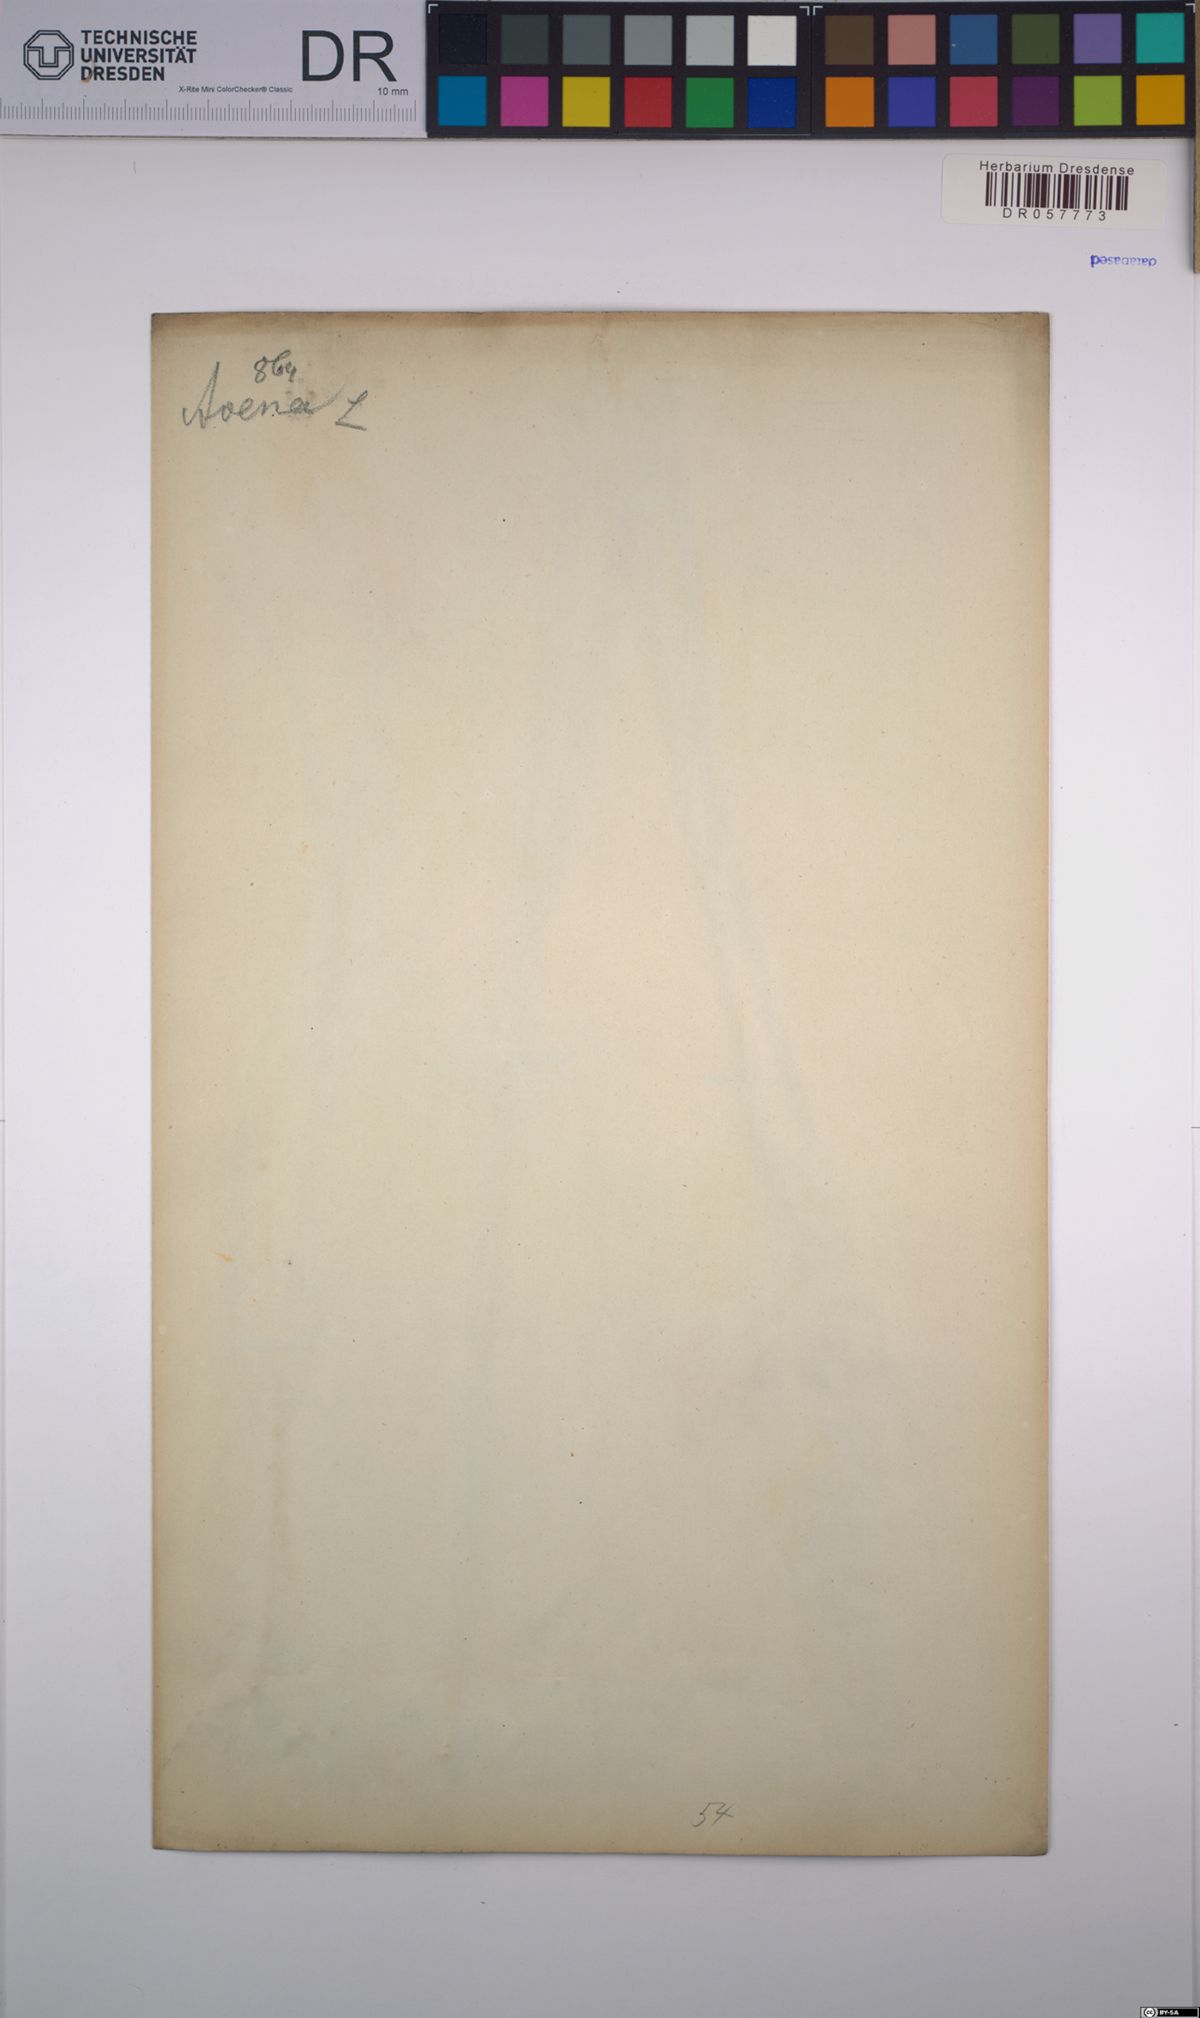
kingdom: Plantae
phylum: Tracheophyta
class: Liliopsida
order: Poales
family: Poaceae
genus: Avena
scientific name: Avena
